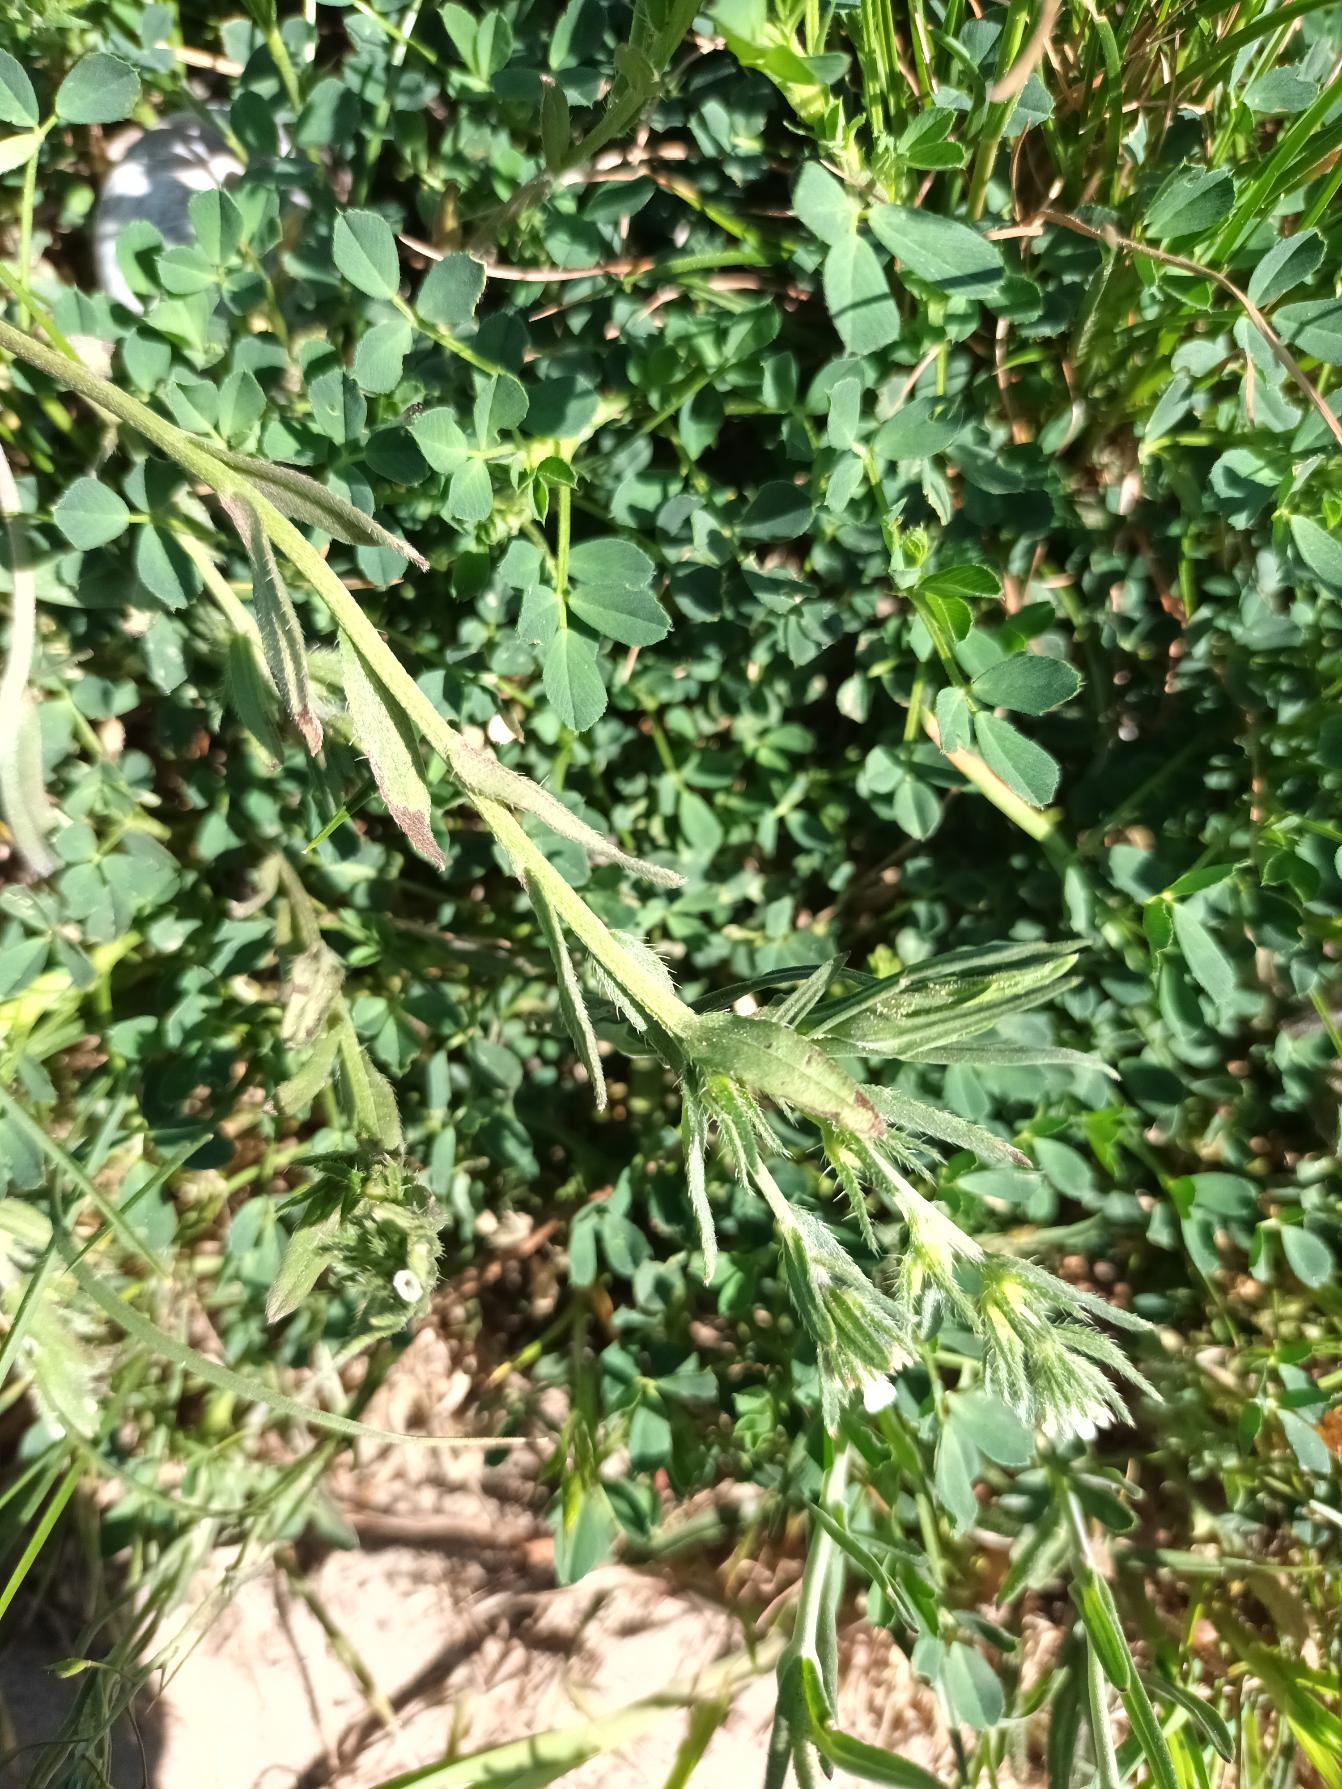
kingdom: Plantae
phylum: Tracheophyta
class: Magnoliopsida
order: Boraginales
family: Boraginaceae
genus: Buglossoides
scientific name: Buglossoides arvensis
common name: Rynket stenfrø
